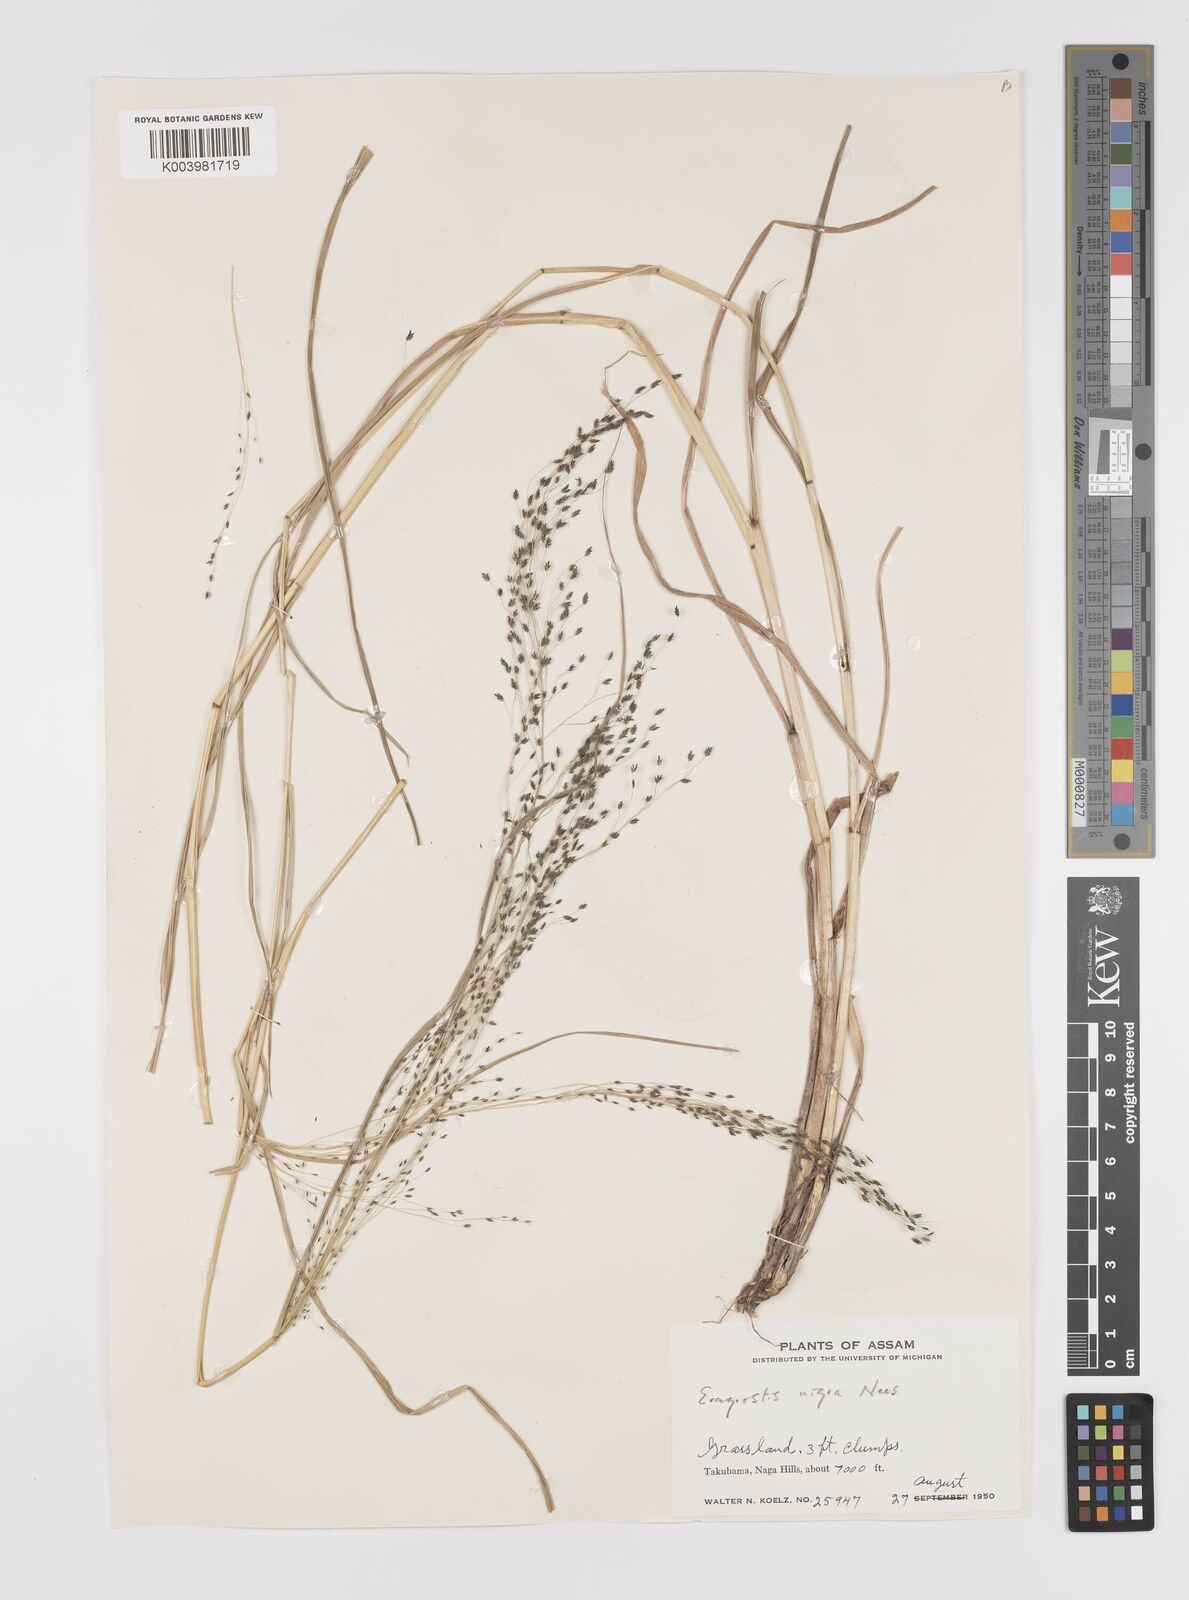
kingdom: Plantae
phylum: Tracheophyta
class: Liliopsida
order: Poales
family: Poaceae
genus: Eragrostis
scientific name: Eragrostis nigra
